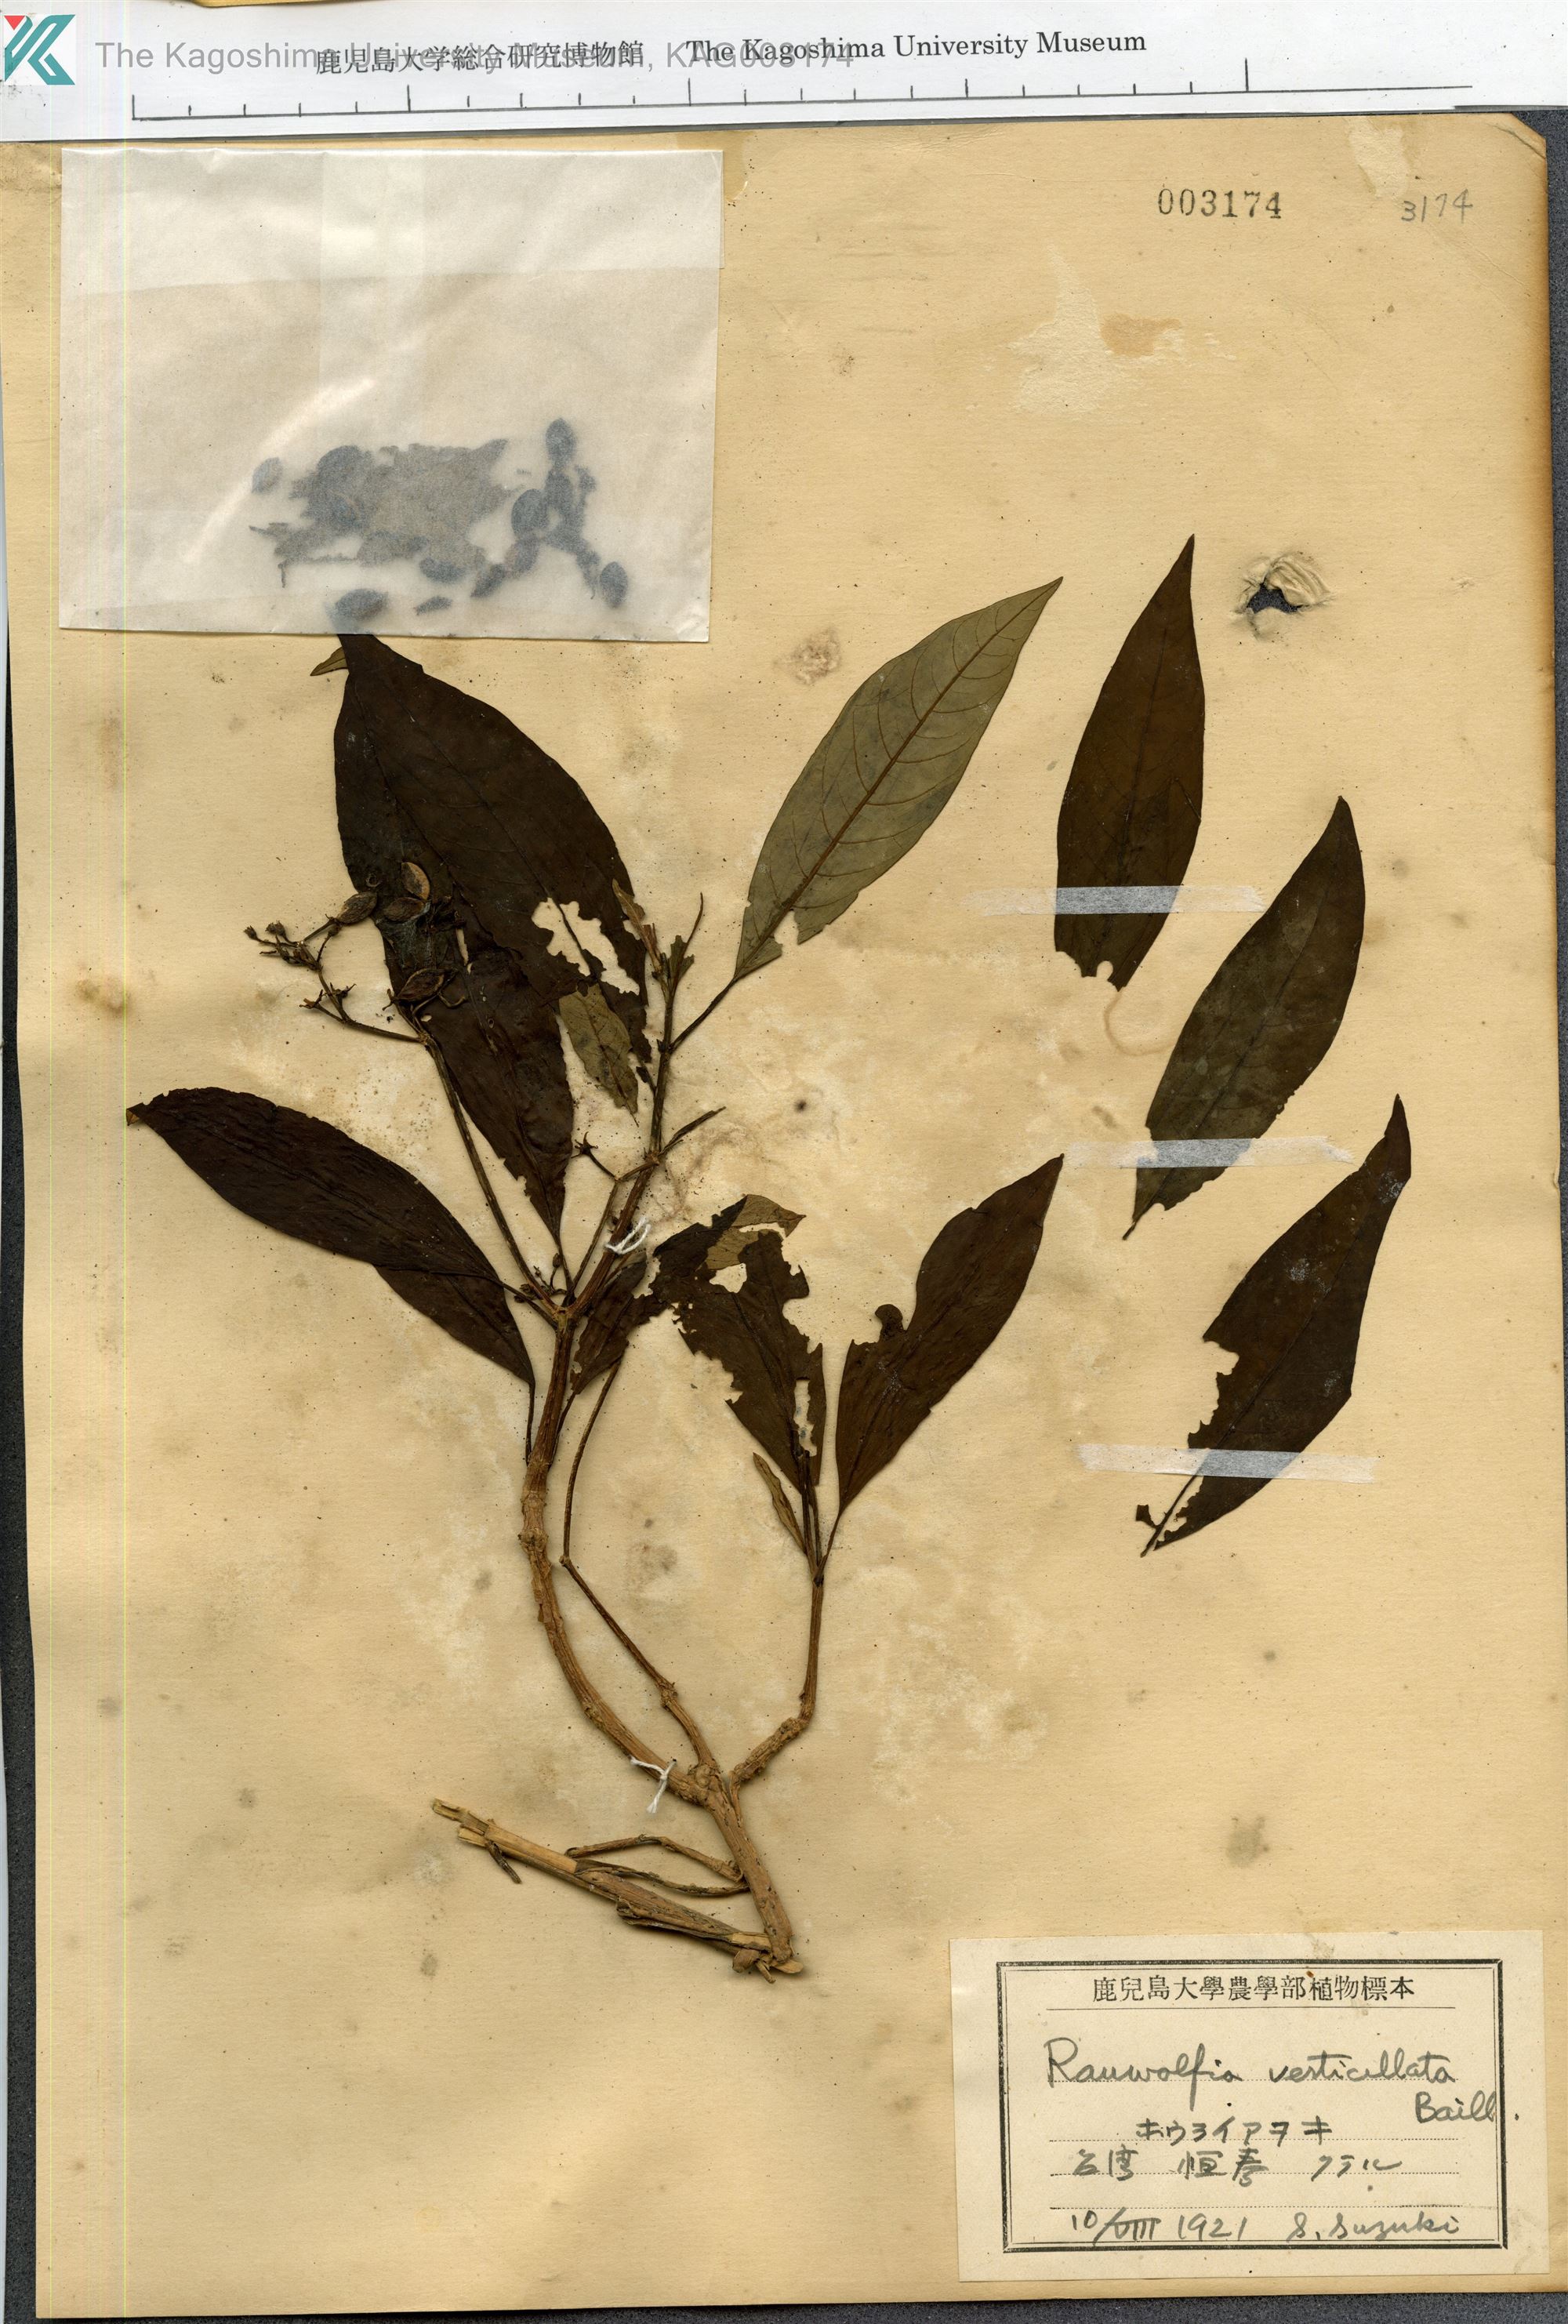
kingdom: Plantae
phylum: Tracheophyta
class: Magnoliopsida
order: Gentianales
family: Apocynaceae
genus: Rauvolfia
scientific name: Rauvolfia verticillata
